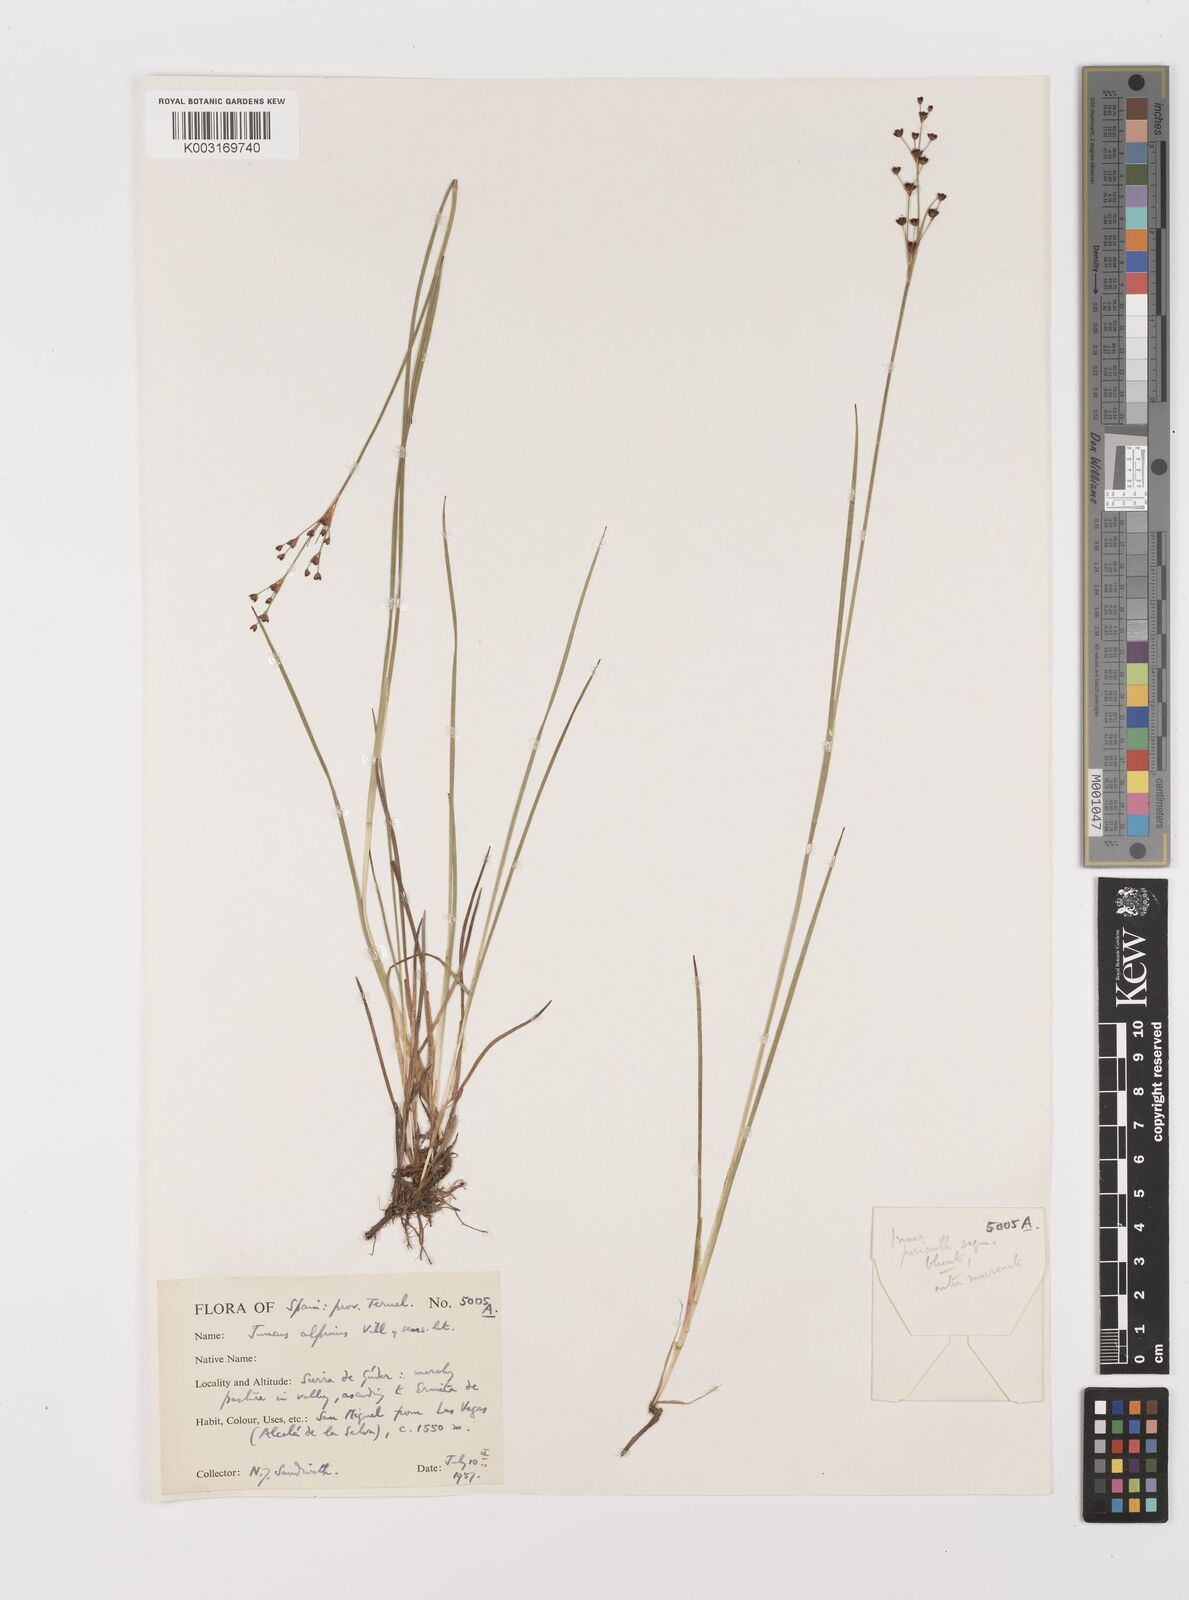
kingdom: Plantae
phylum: Tracheophyta
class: Liliopsida
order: Poales
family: Juncaceae
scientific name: Juncaceae
